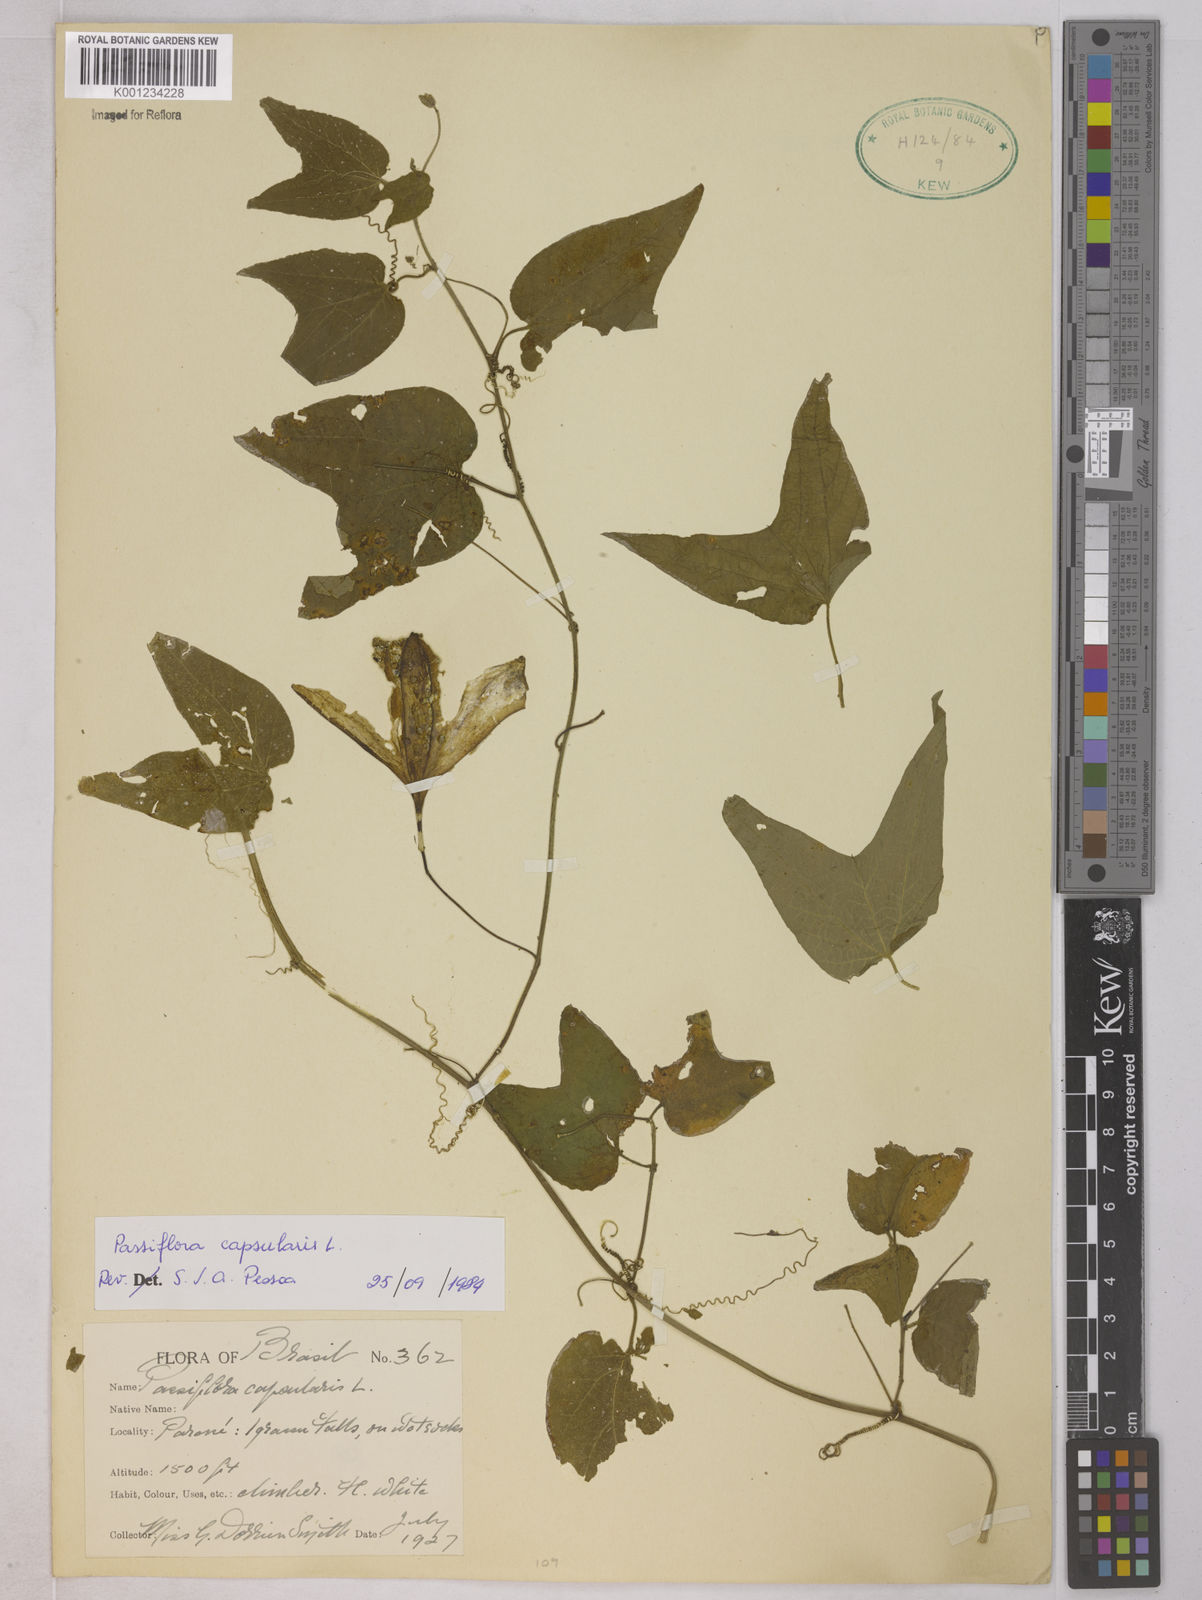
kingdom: Plantae
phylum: Tracheophyta
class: Magnoliopsida
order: Malpighiales
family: Passifloraceae
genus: Passiflora
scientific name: Passiflora capsularis
